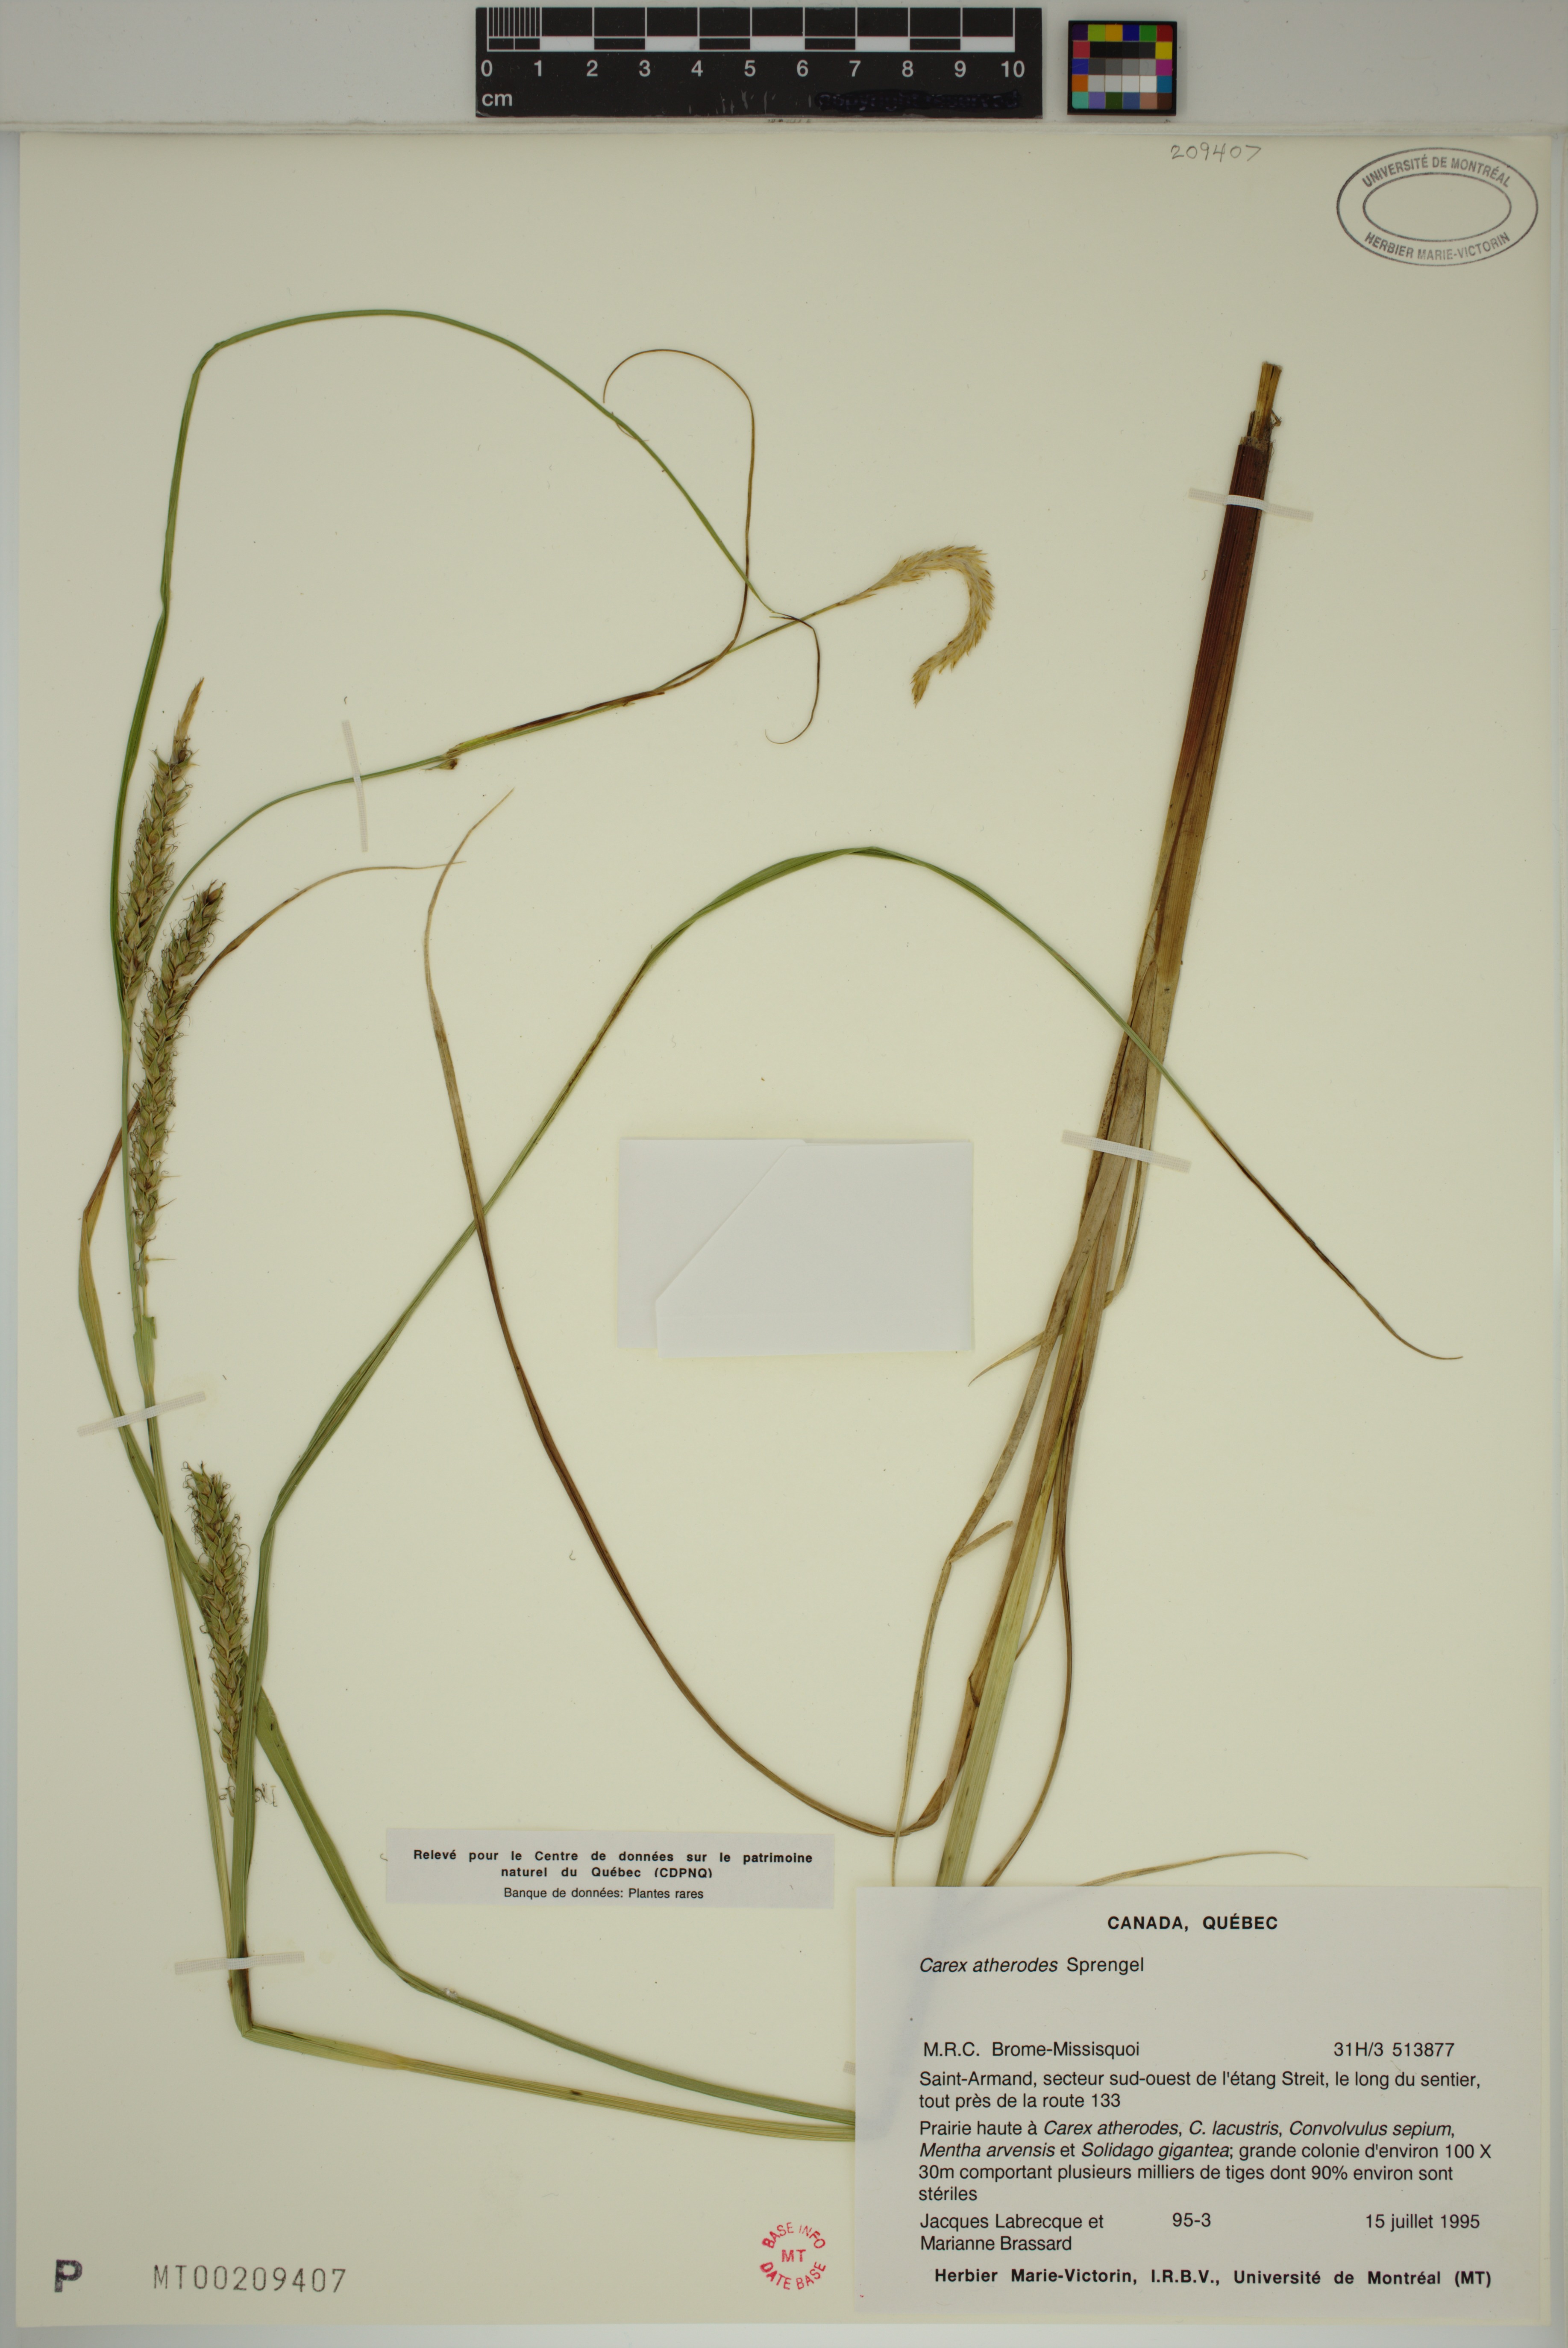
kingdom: Plantae
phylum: Tracheophyta
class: Liliopsida
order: Poales
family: Cyperaceae
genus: Carex
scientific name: Carex atherodes
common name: Wheat sedge
